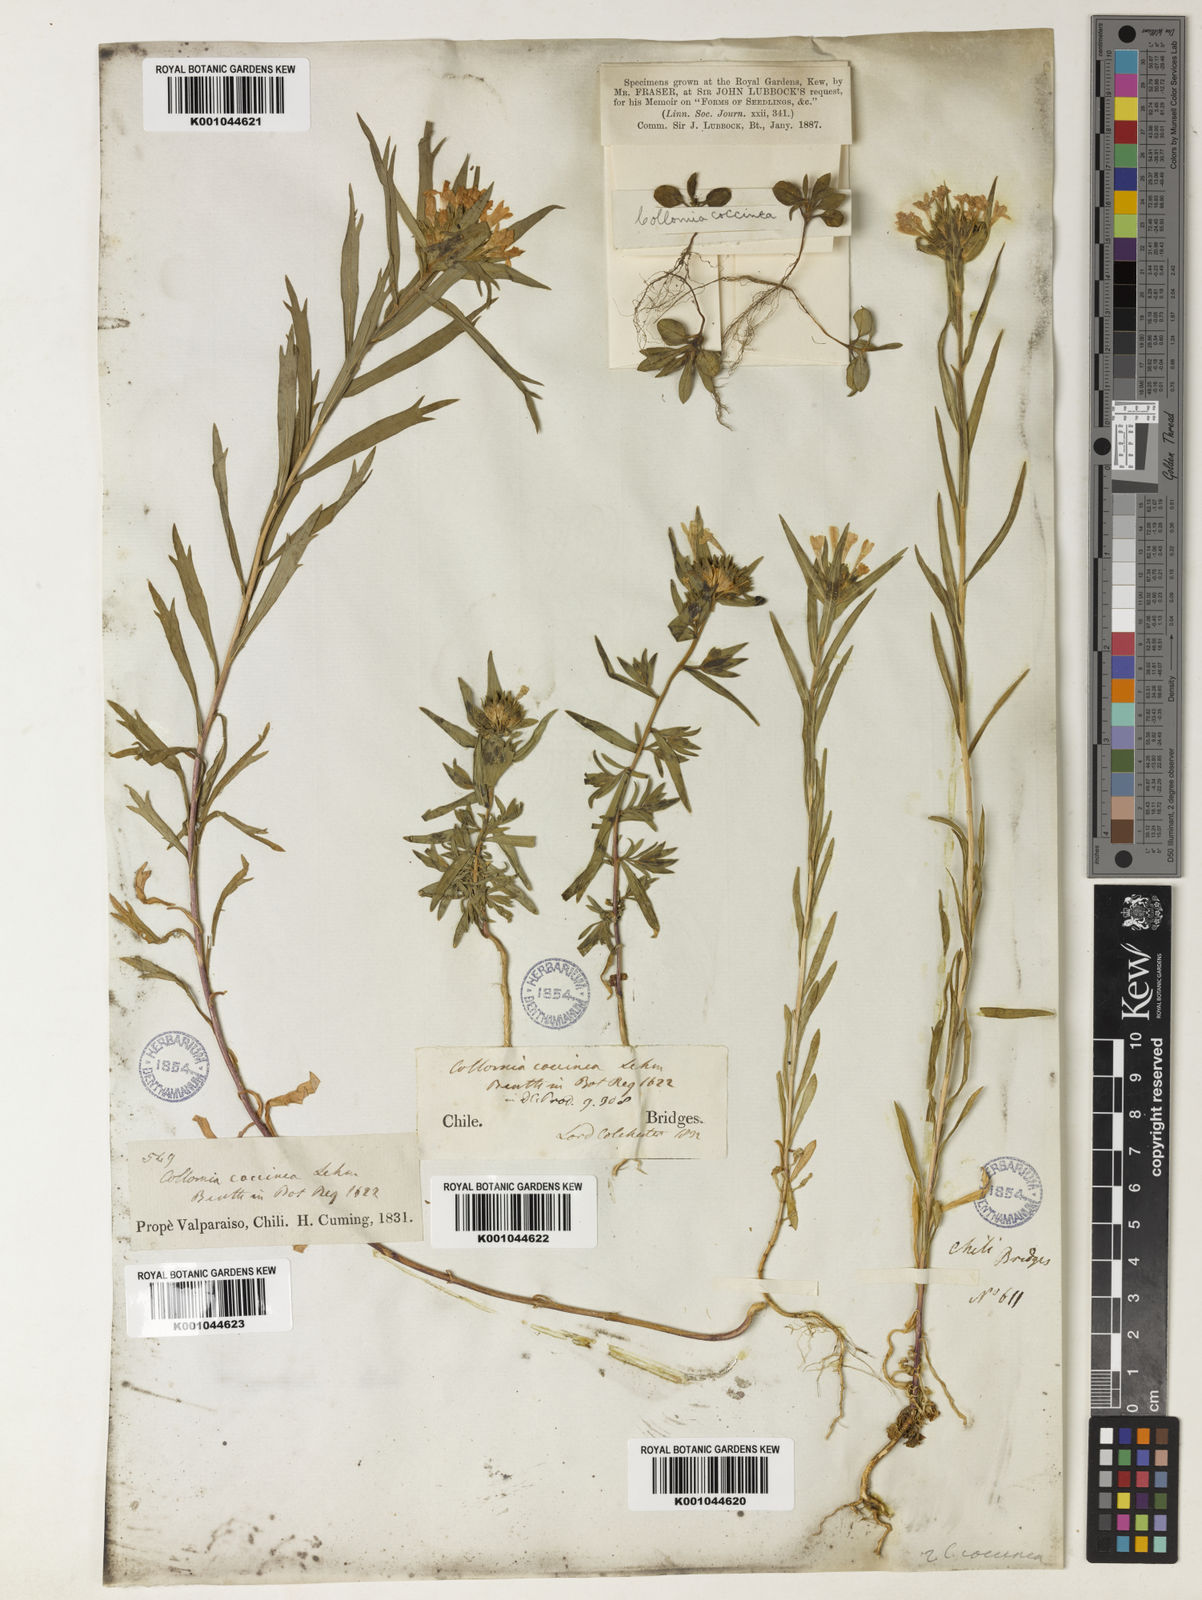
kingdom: Plantae
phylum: Tracheophyta
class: Magnoliopsida
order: Ericales
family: Polemoniaceae
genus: Collomia
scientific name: Collomia biflora
